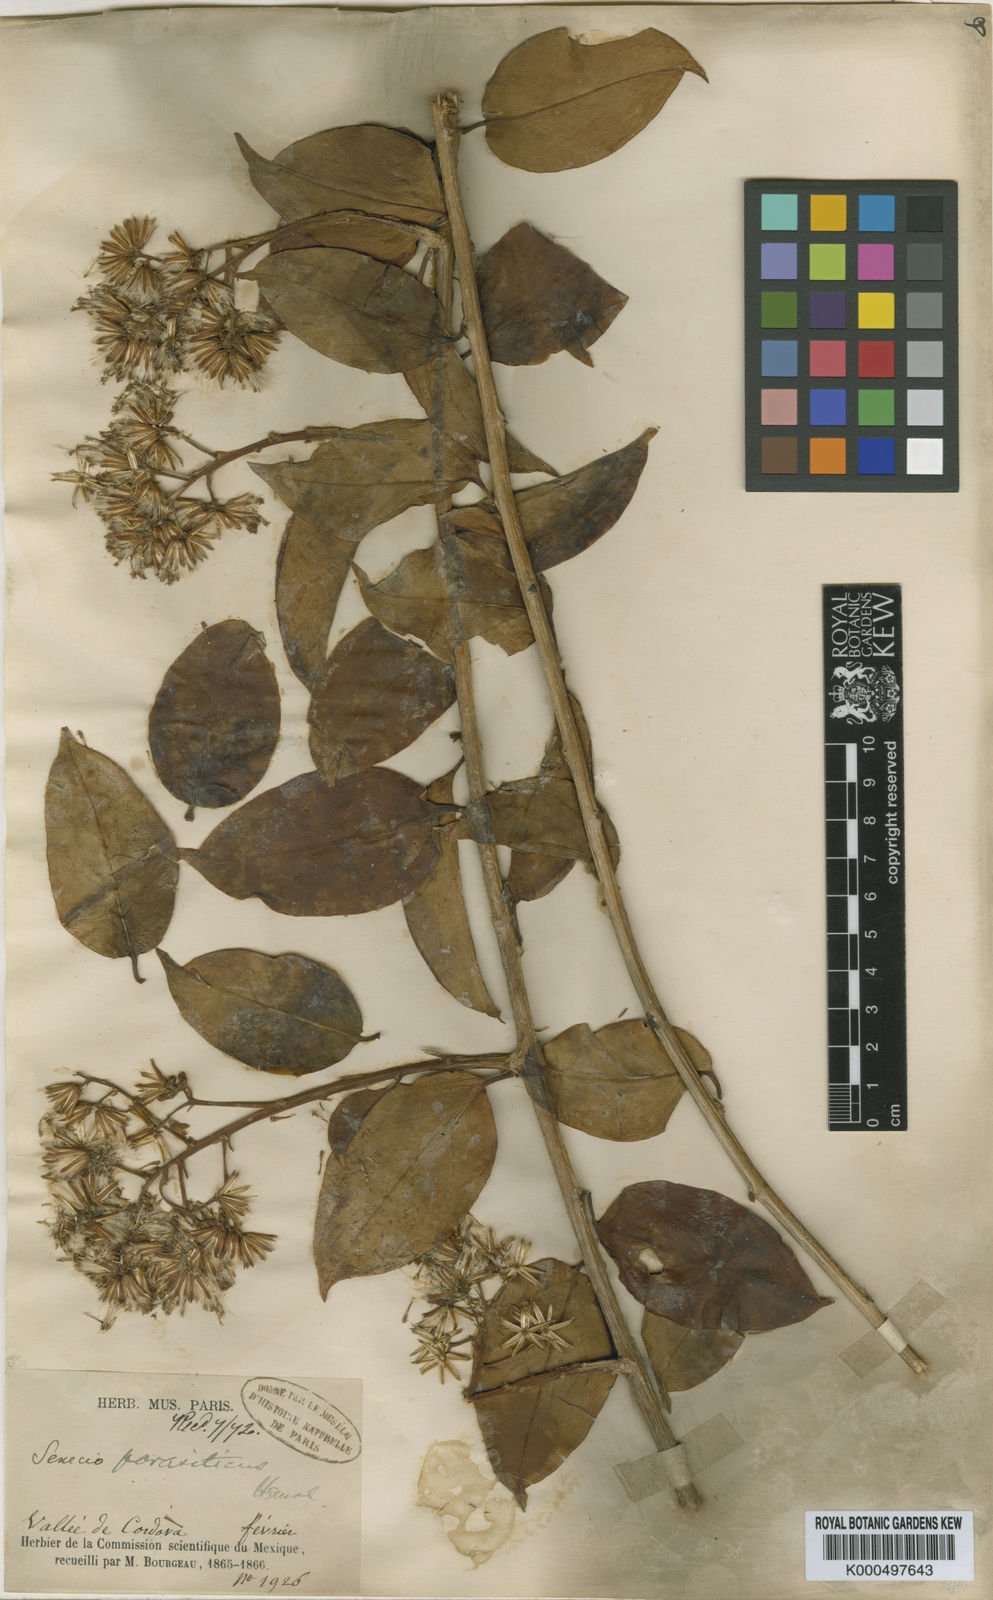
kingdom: Plantae
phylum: Tracheophyta
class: Magnoliopsida
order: Asterales
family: Asteraceae
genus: Pentacalia
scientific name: Pentacalia parasitica
